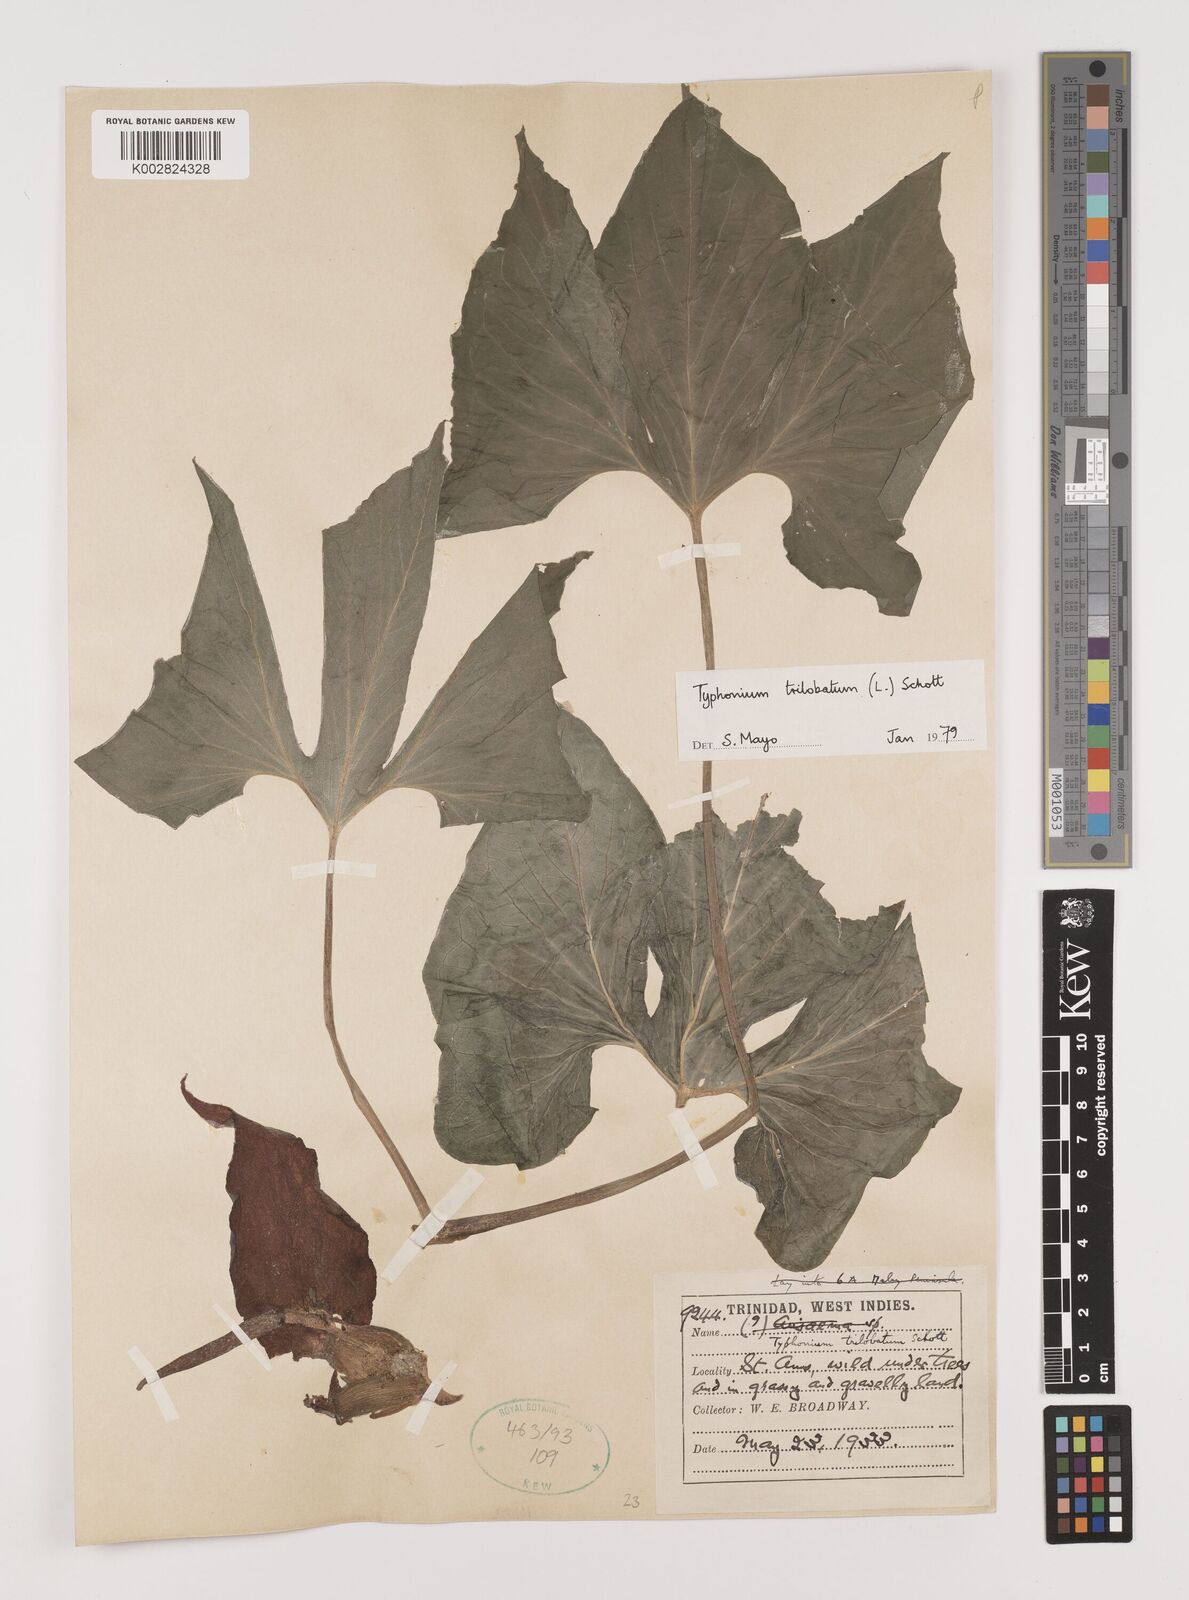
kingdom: Plantae
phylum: Tracheophyta
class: Liliopsida
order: Alismatales
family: Araceae
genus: Typhonium
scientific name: Typhonium trilobatum
